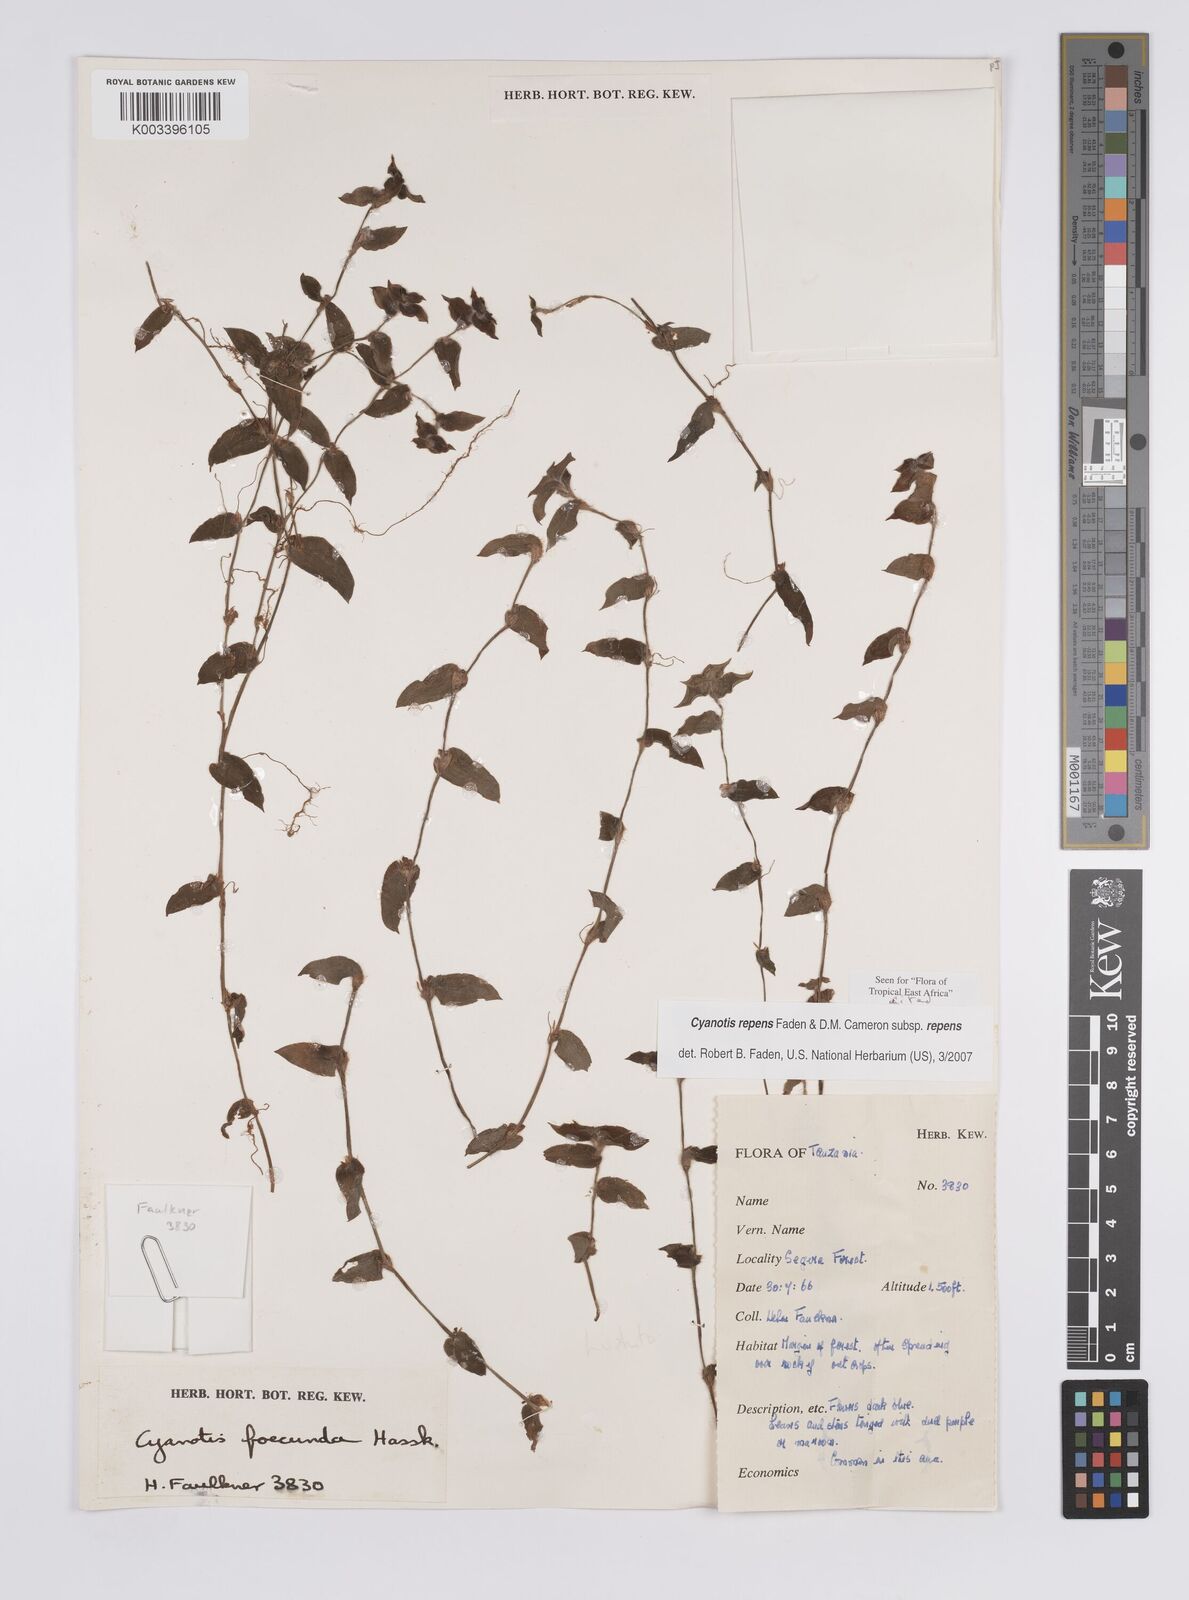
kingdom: Plantae
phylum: Tracheophyta
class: Liliopsida
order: Commelinales
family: Commelinaceae
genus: Cyanotis
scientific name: Cyanotis repens
